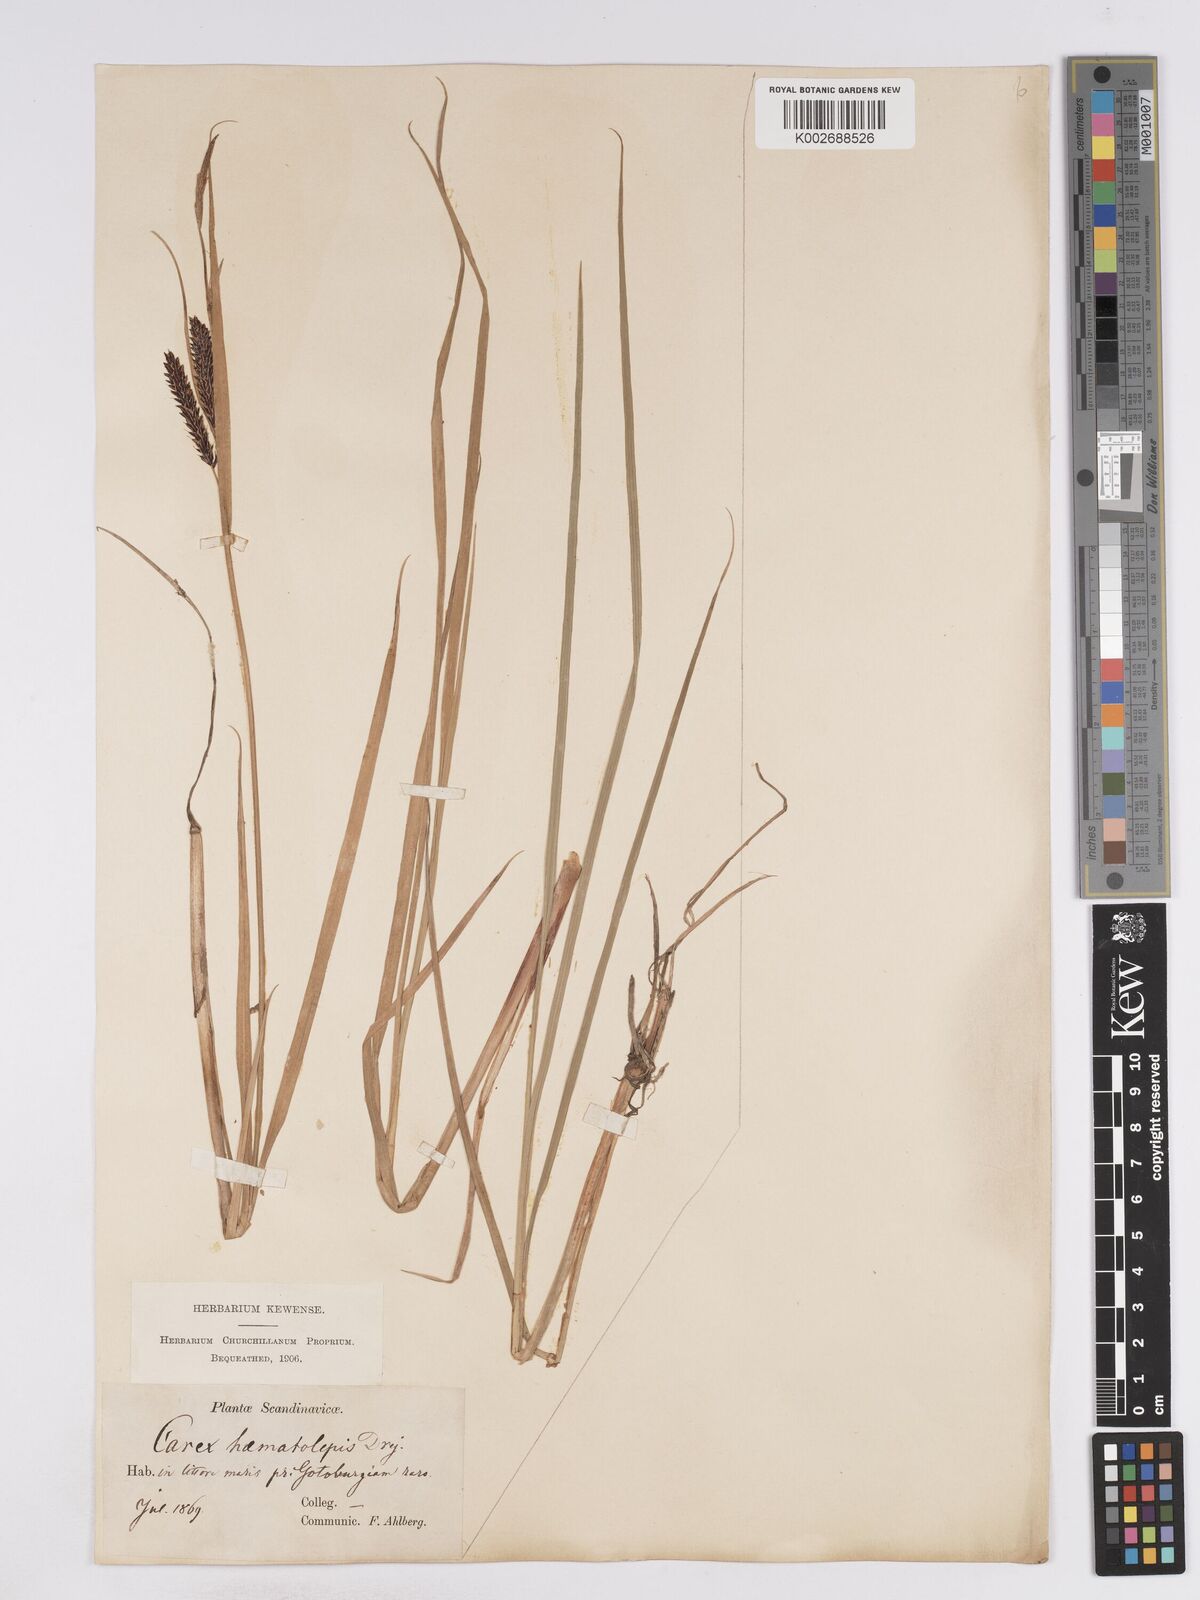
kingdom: Plantae
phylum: Tracheophyta
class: Liliopsida
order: Poales
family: Cyperaceae
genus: Carex
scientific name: Carex recta
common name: Estuarine sedge
